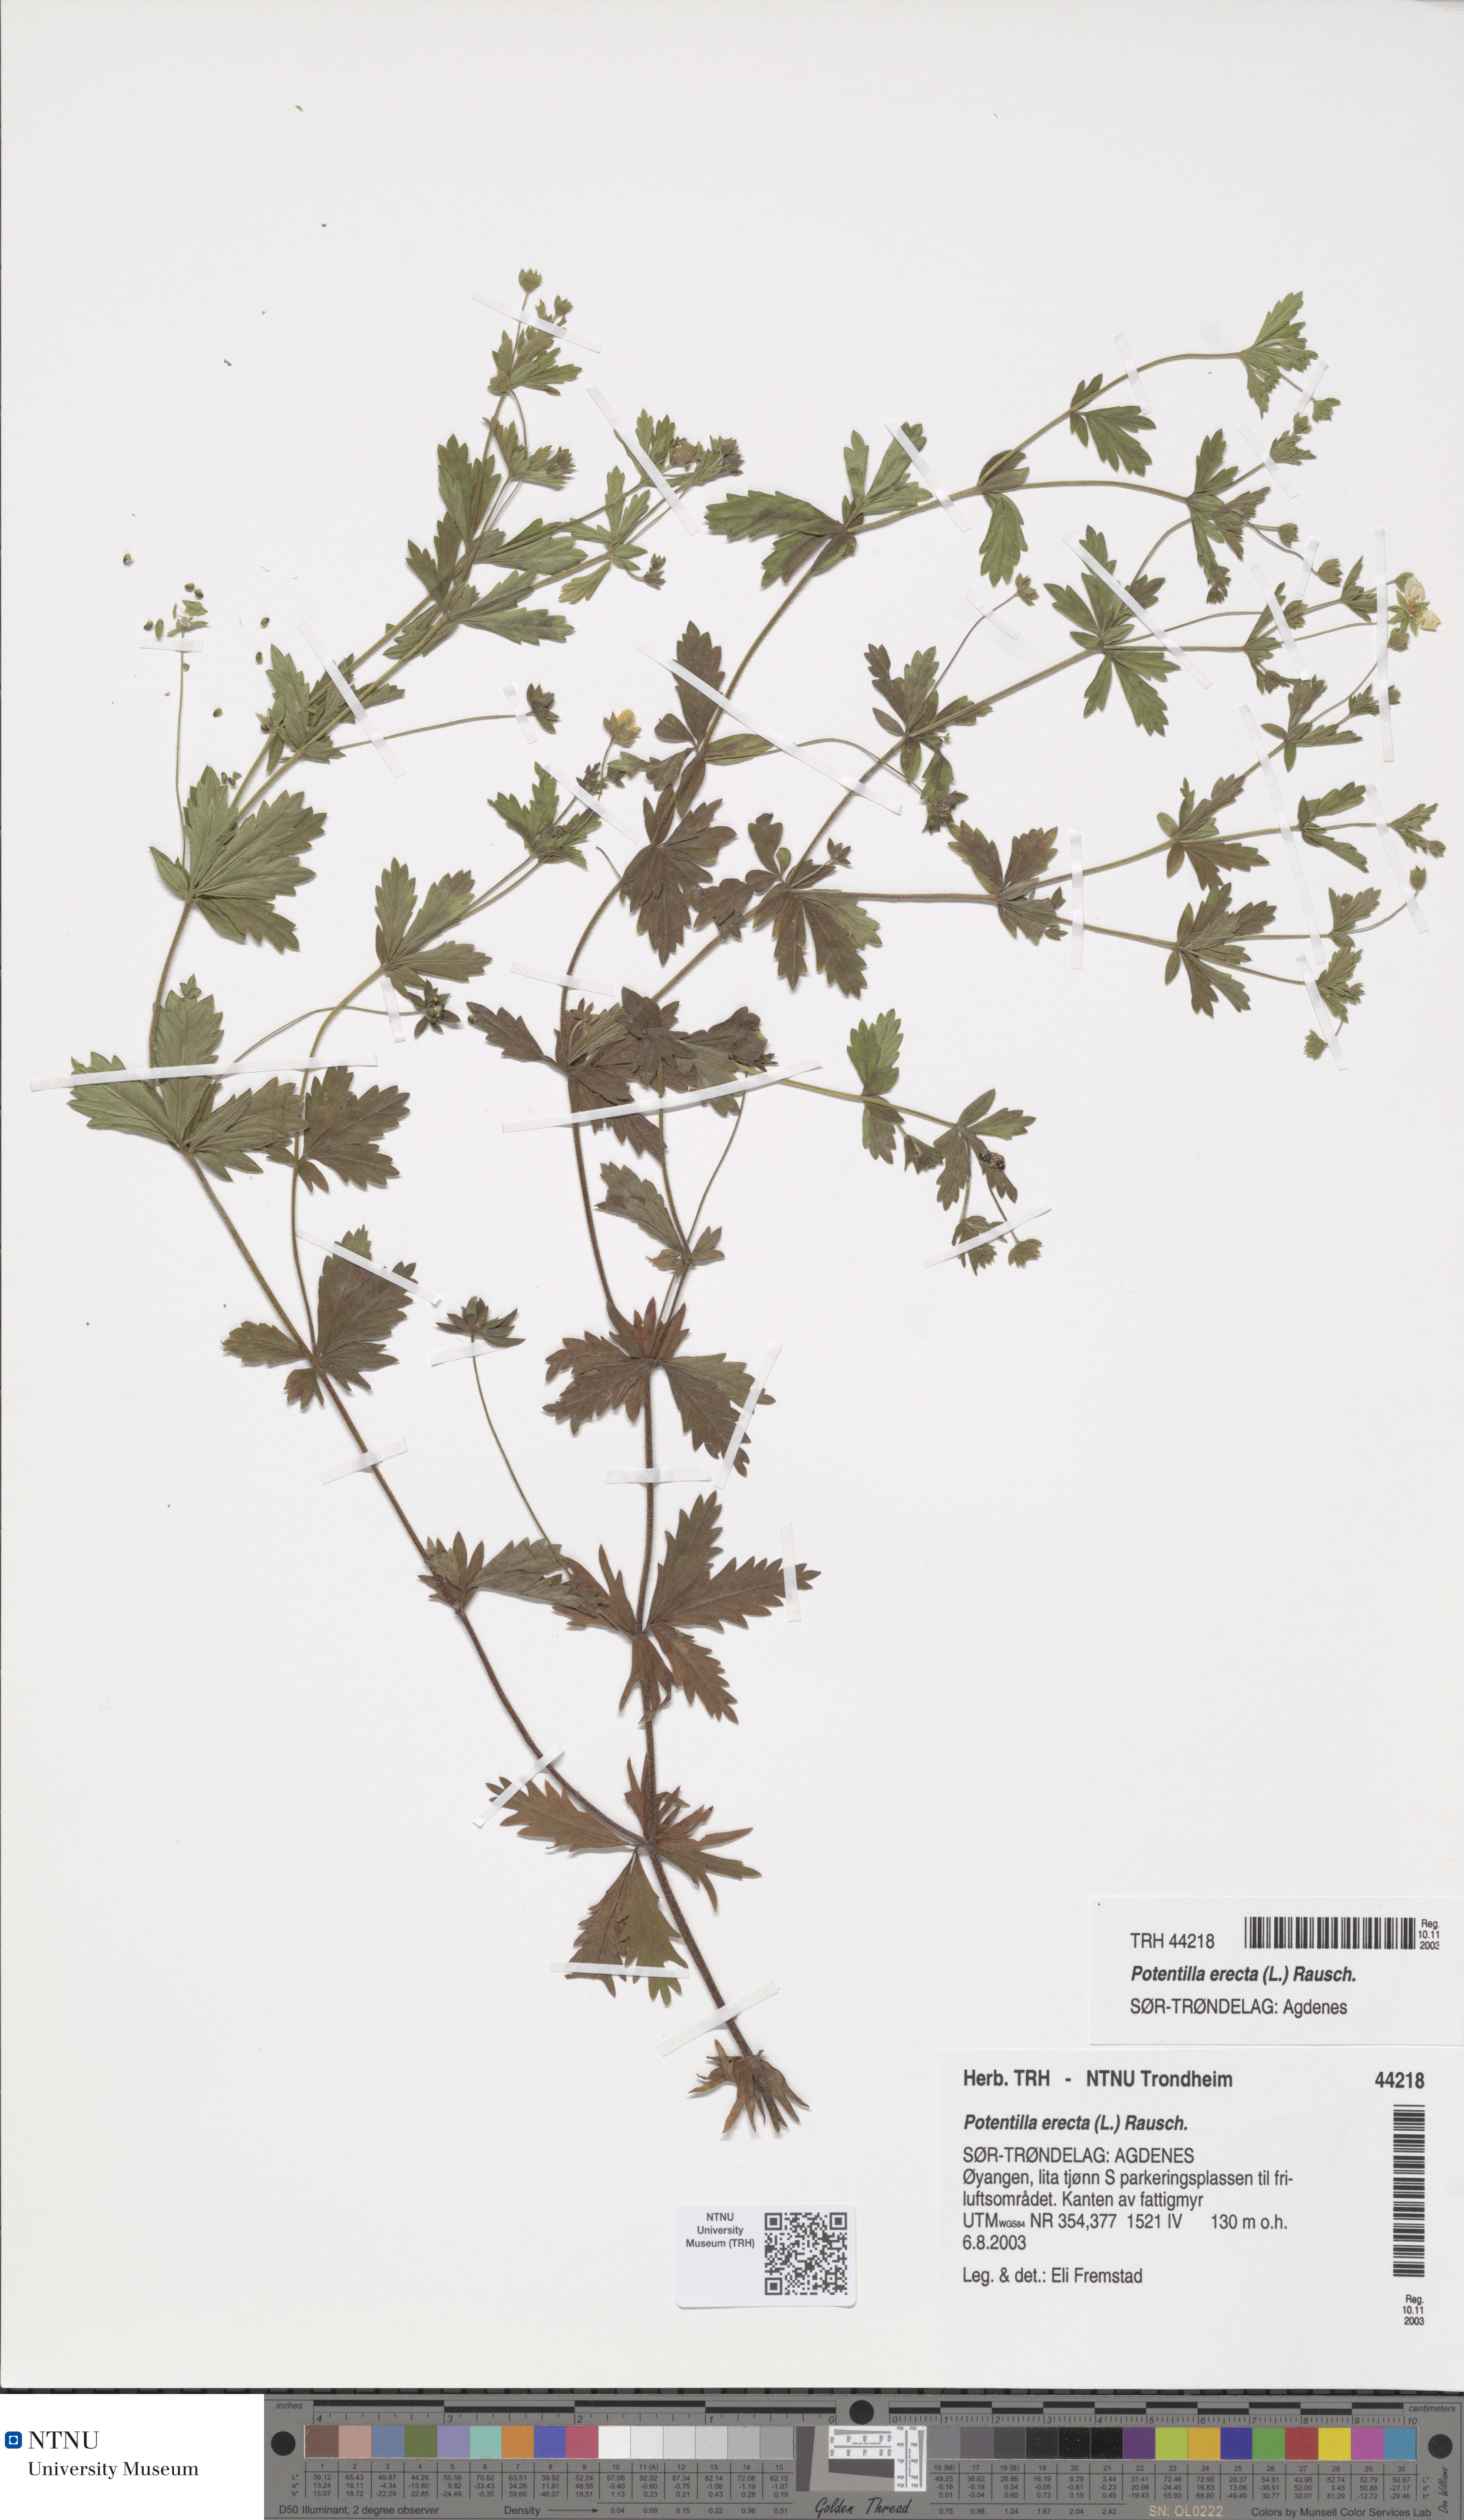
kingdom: Plantae
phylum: Tracheophyta
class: Magnoliopsida
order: Rosales
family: Rosaceae
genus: Potentilla
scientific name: Potentilla erecta
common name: Tormentil
